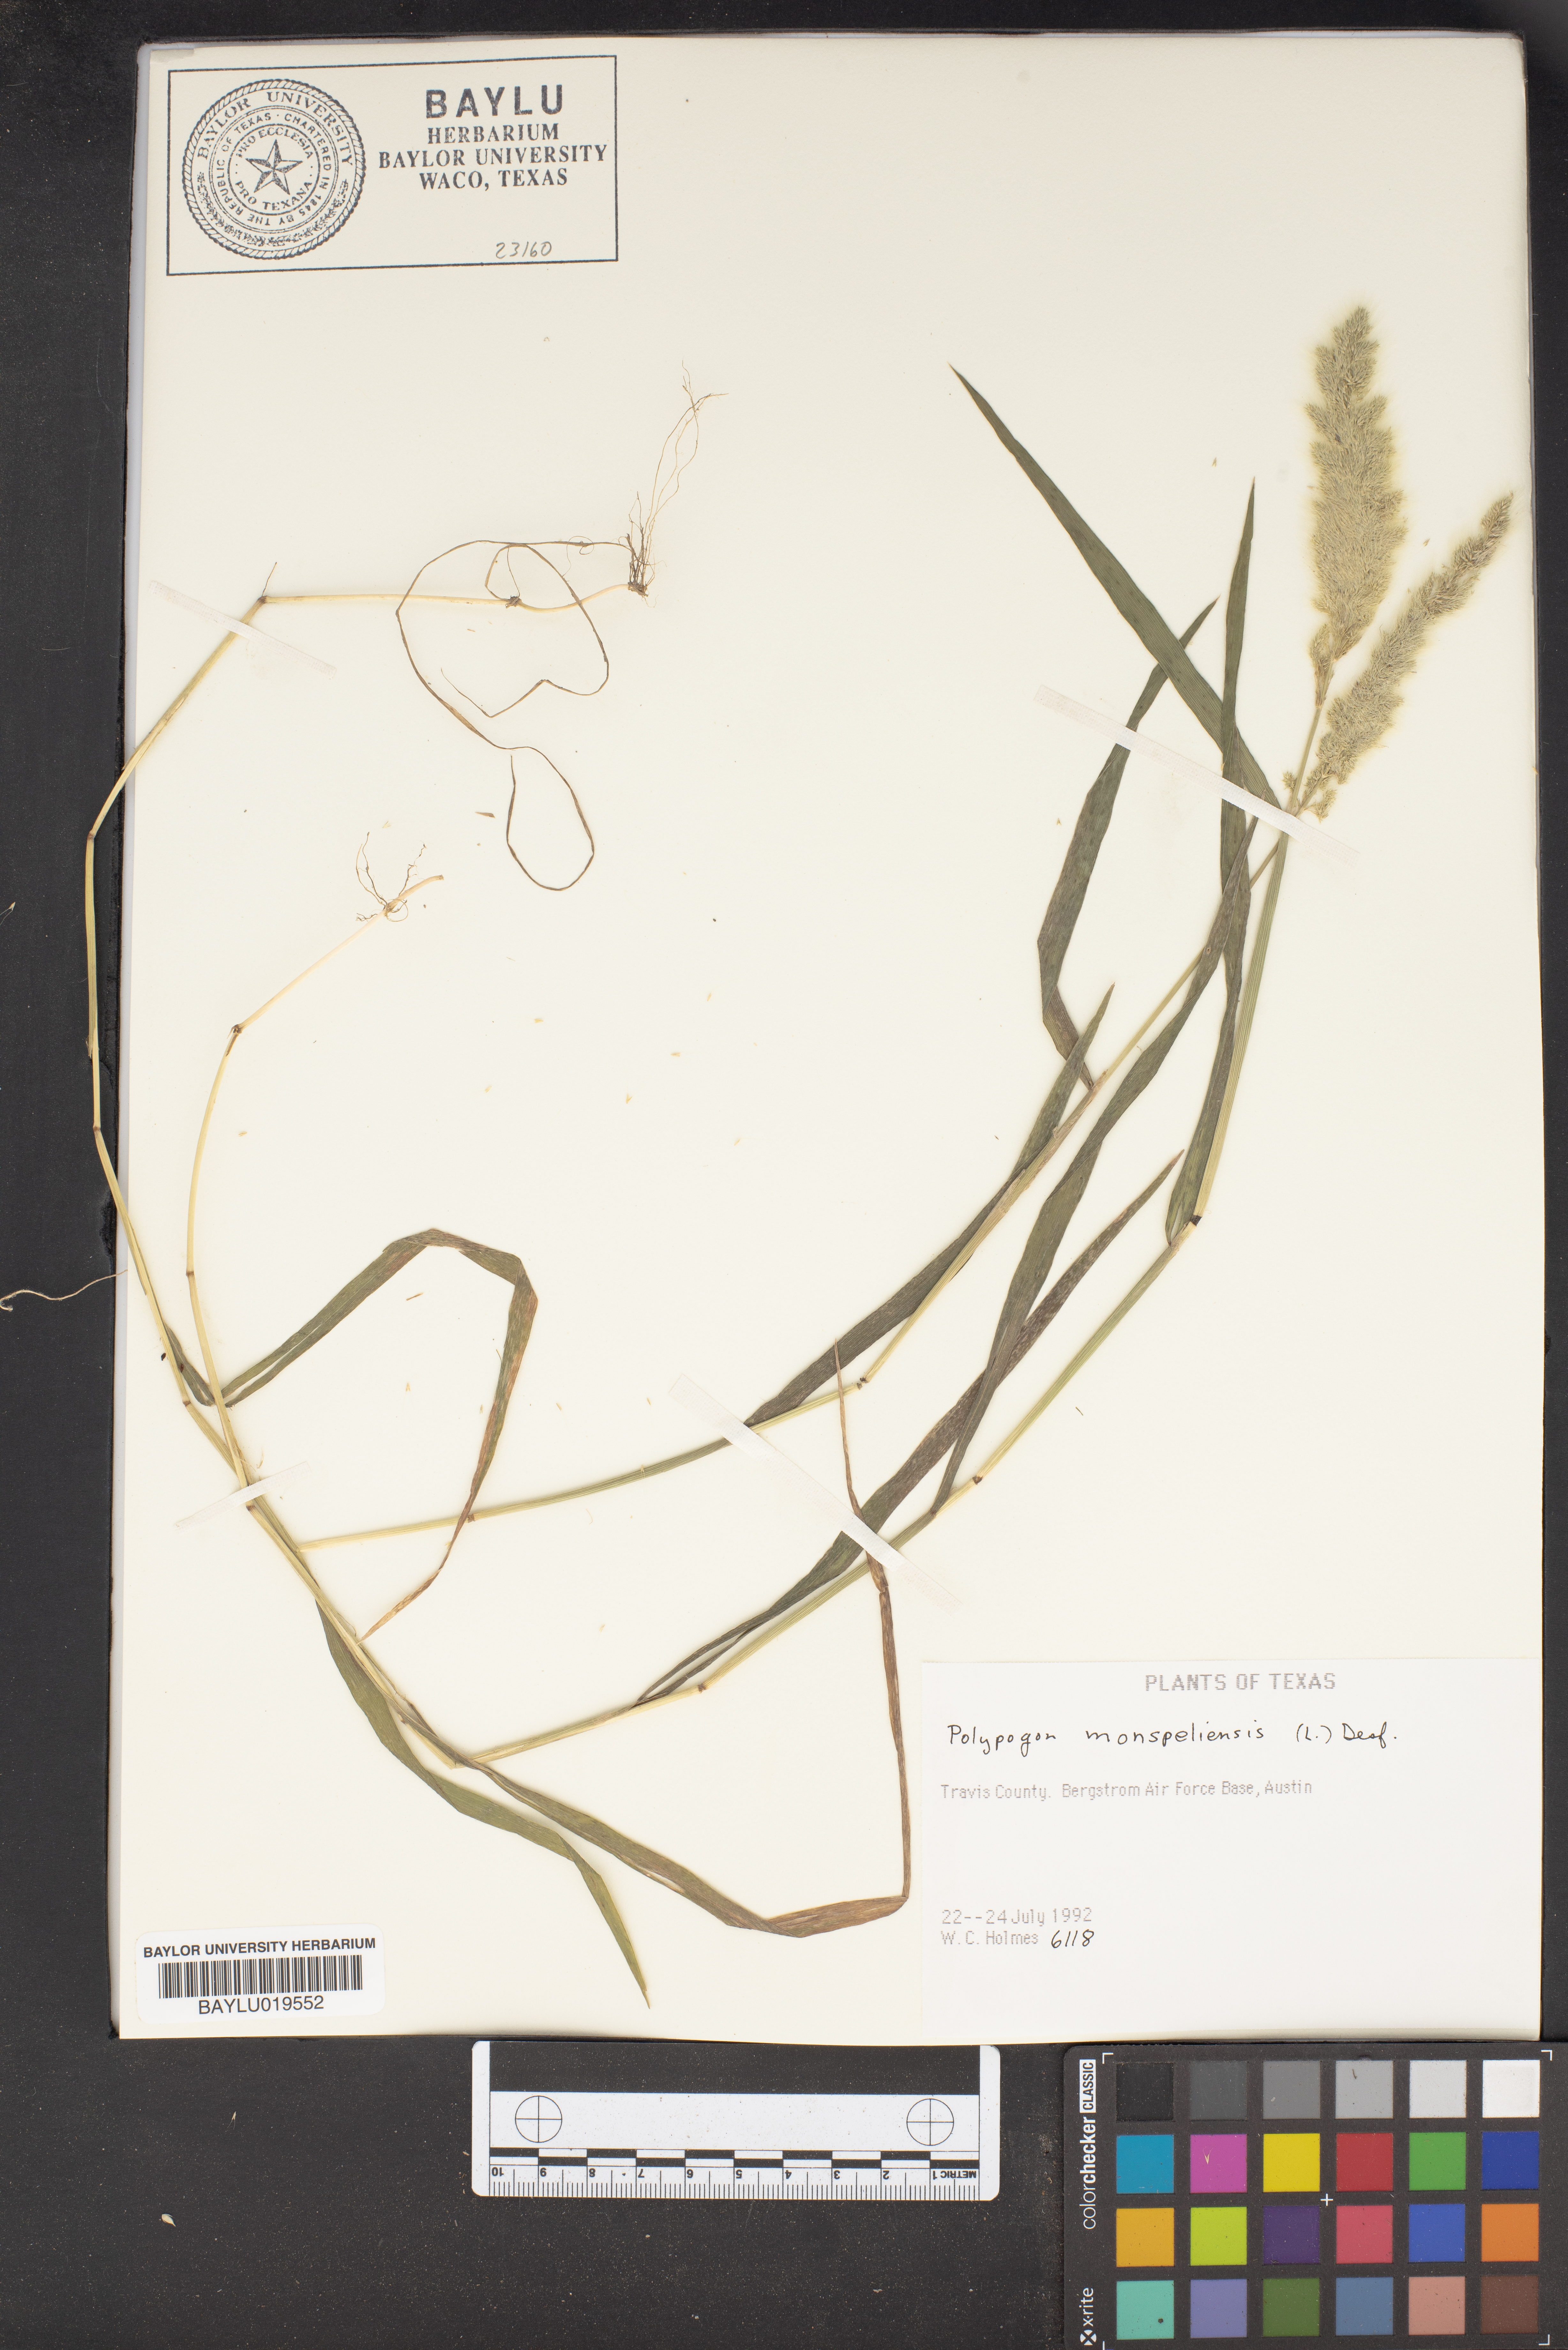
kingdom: Plantae
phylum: Tracheophyta
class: Liliopsida
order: Poales
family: Poaceae
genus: Polypogon
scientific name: Polypogon monspeliensis
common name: Annual rabbitsfoot grass
